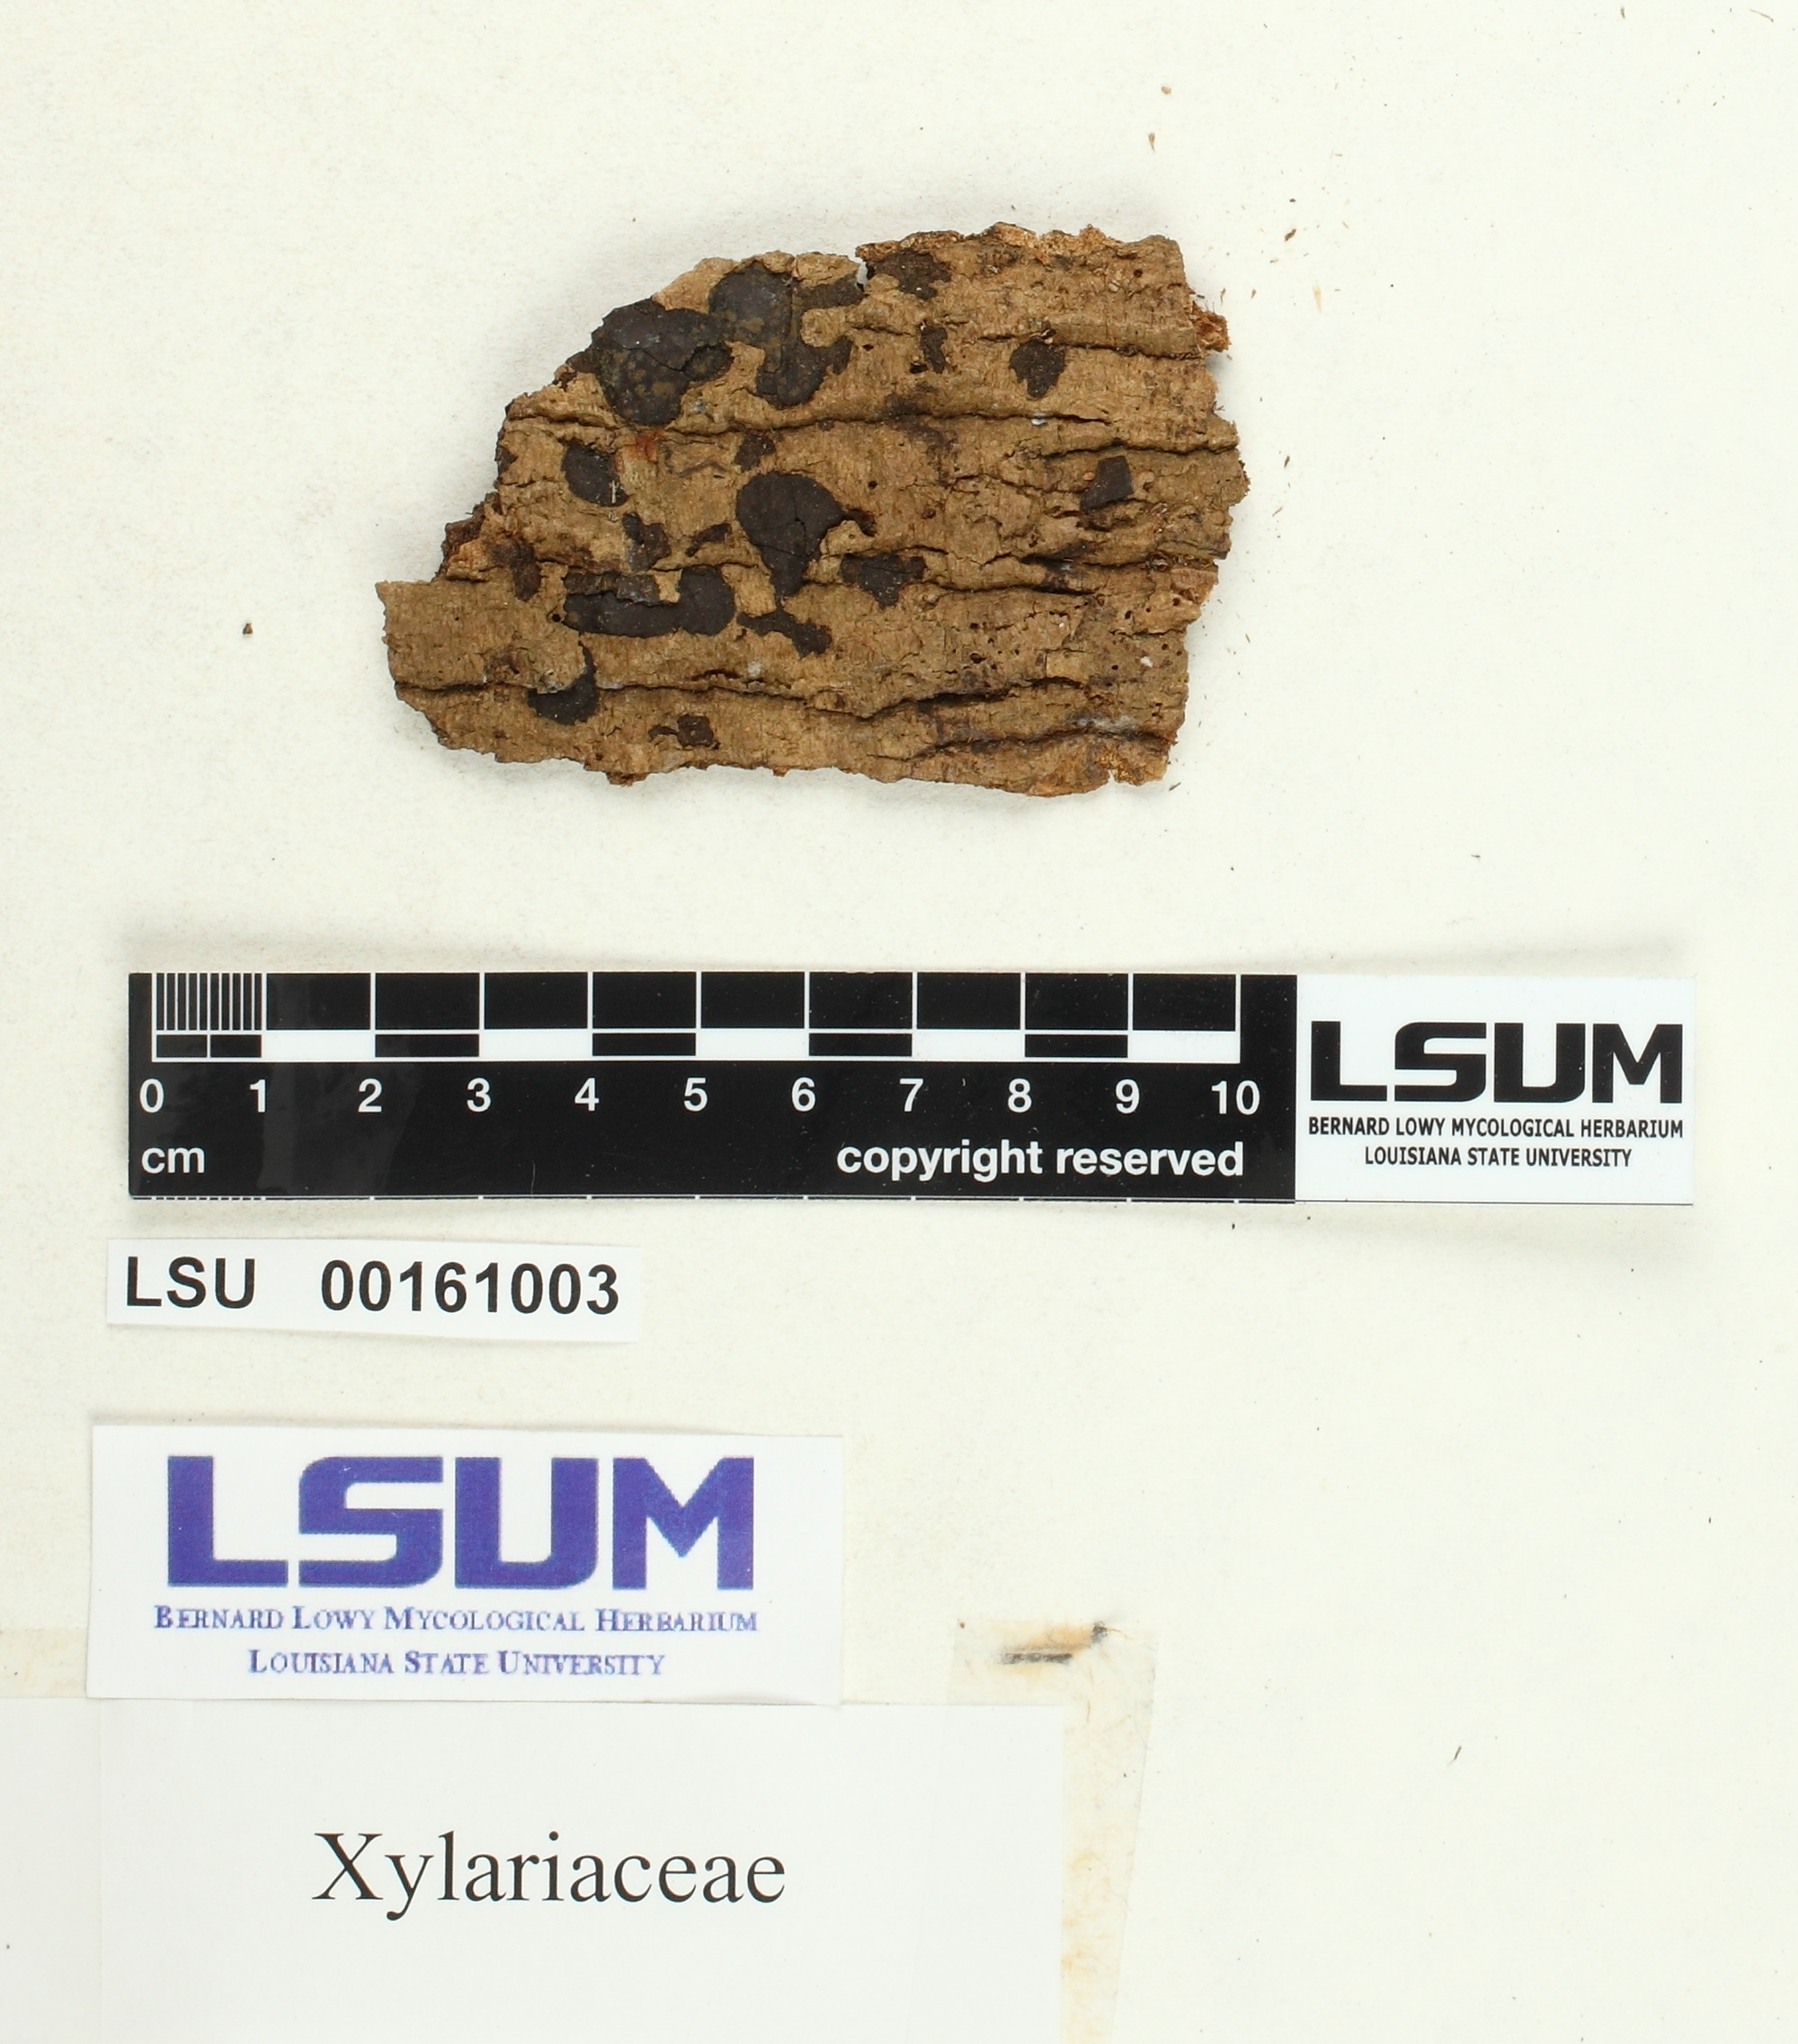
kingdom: Fungi
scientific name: Fungi
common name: Fungi
